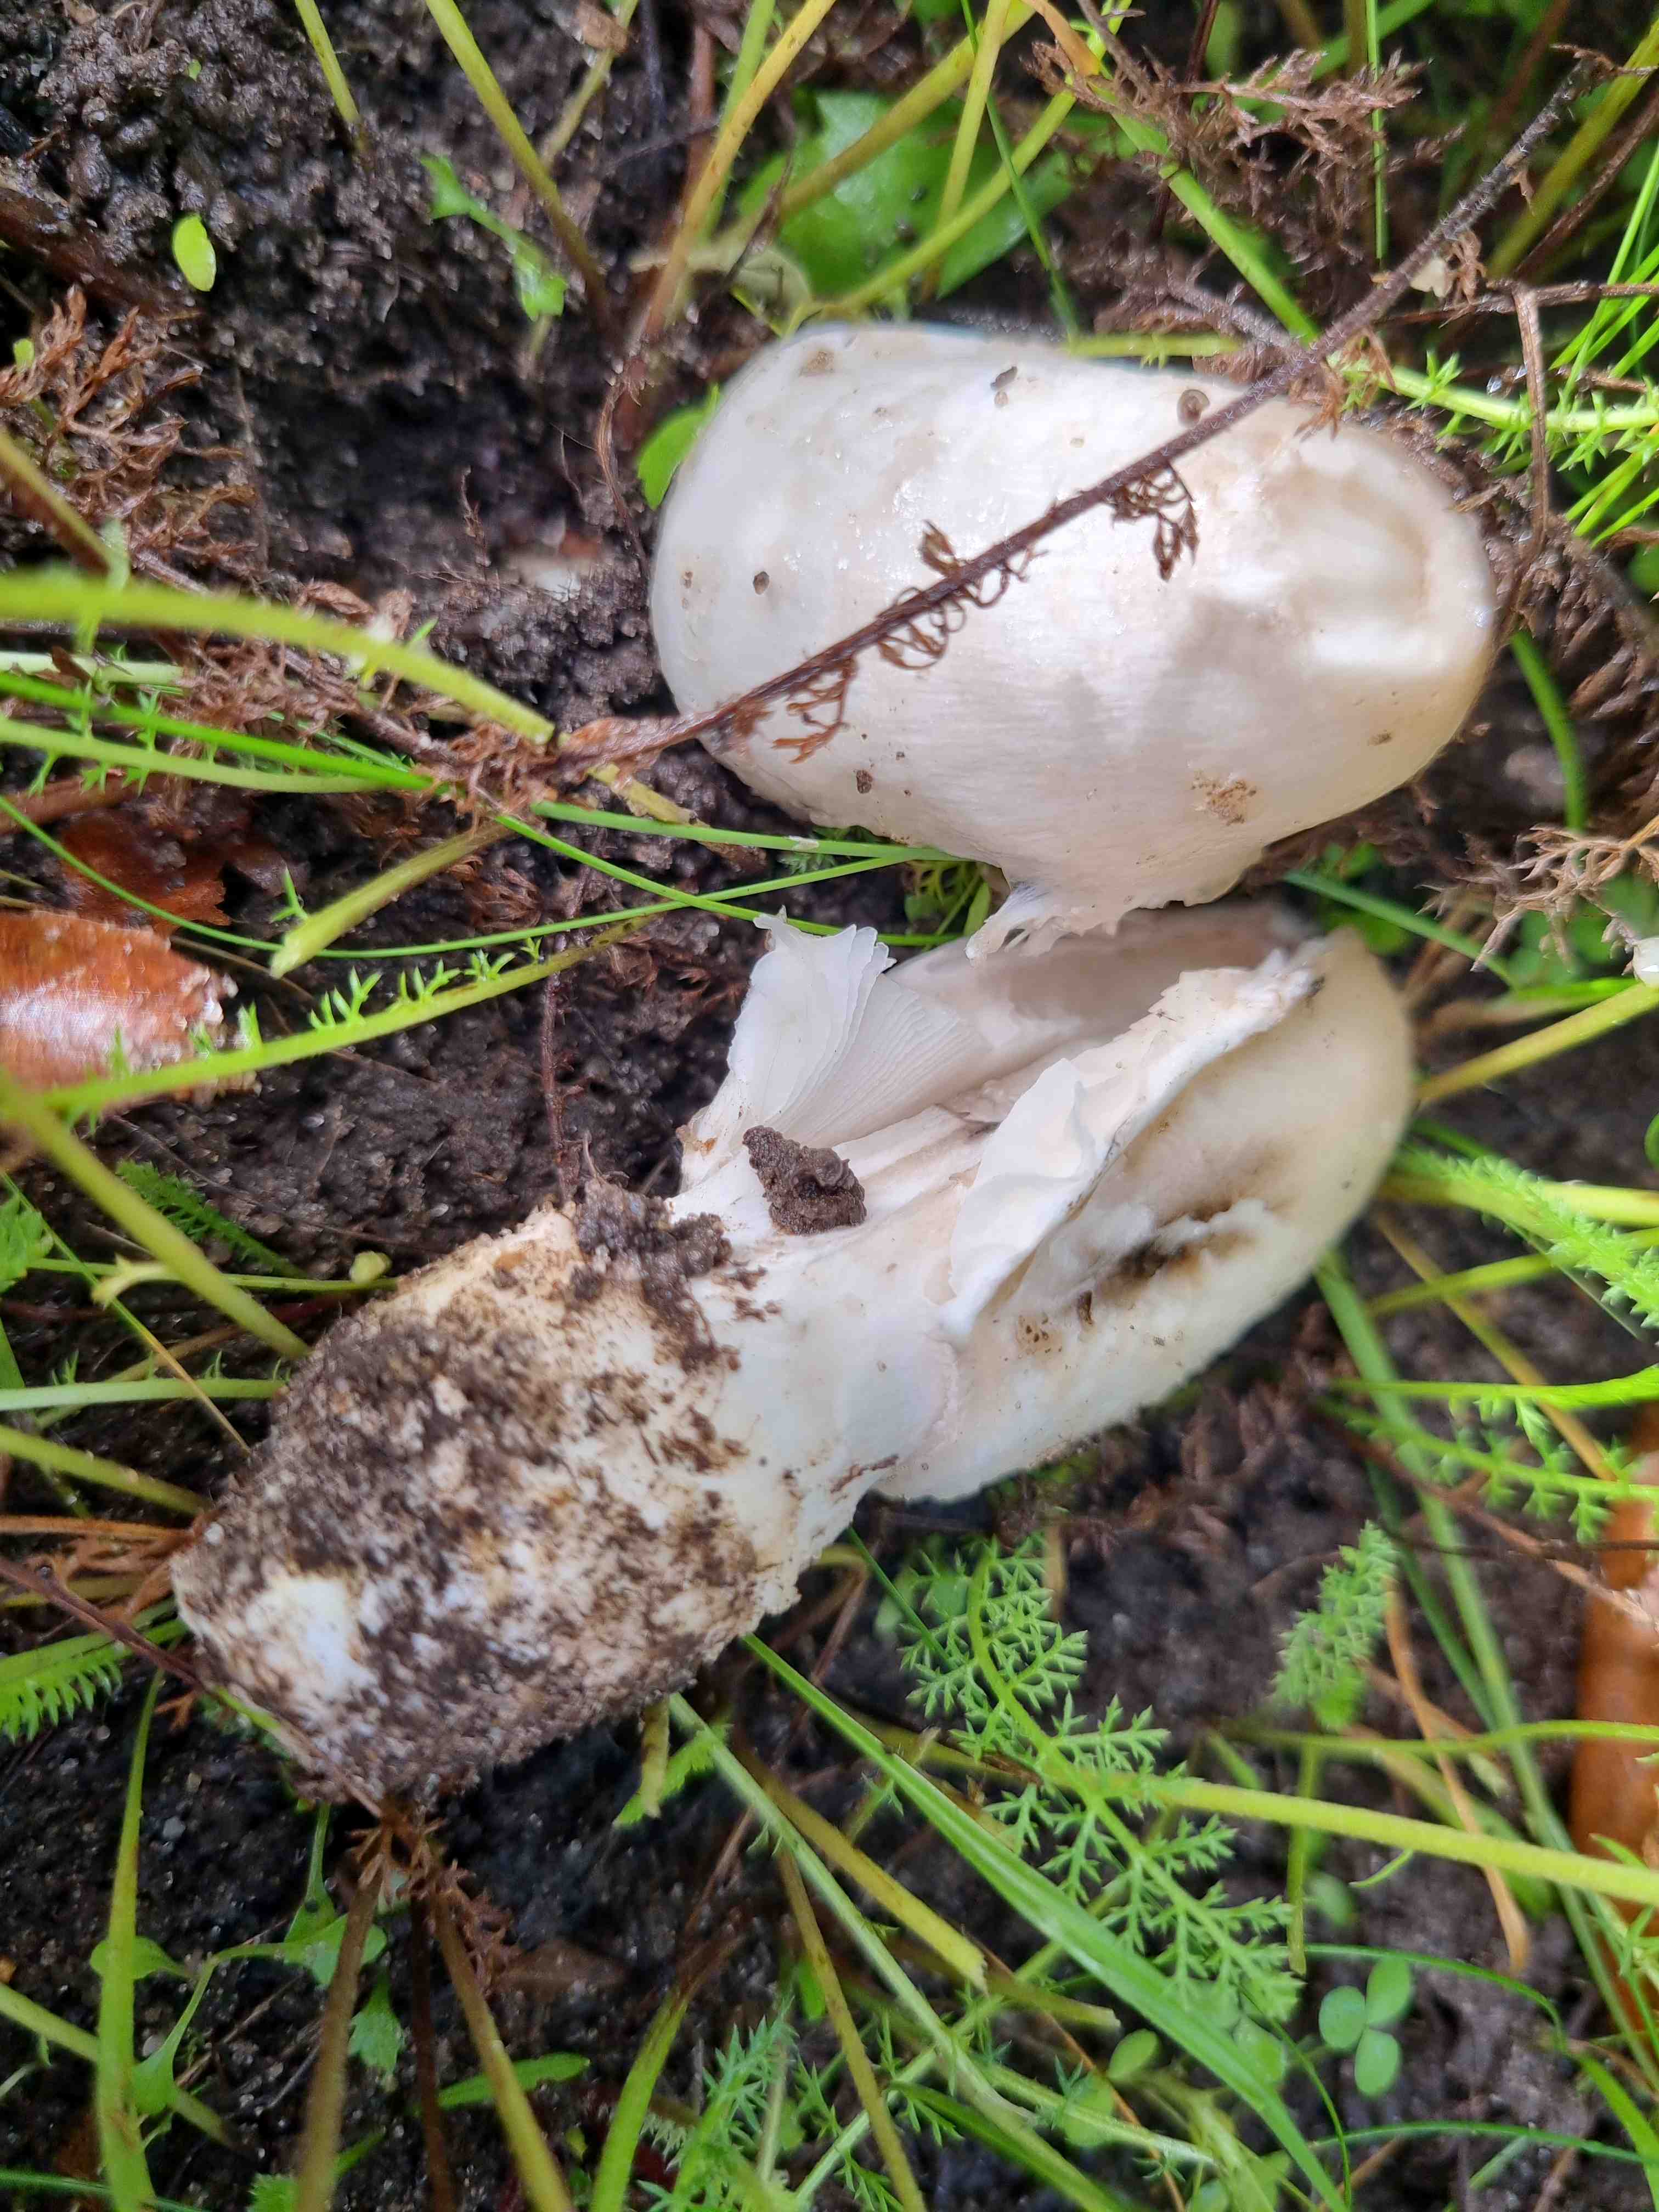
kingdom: Fungi
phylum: Basidiomycota
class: Agaricomycetes
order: Agaricales
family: Agaricaceae
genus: Coprinus
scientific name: Coprinus comatus
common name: stor parykhat
